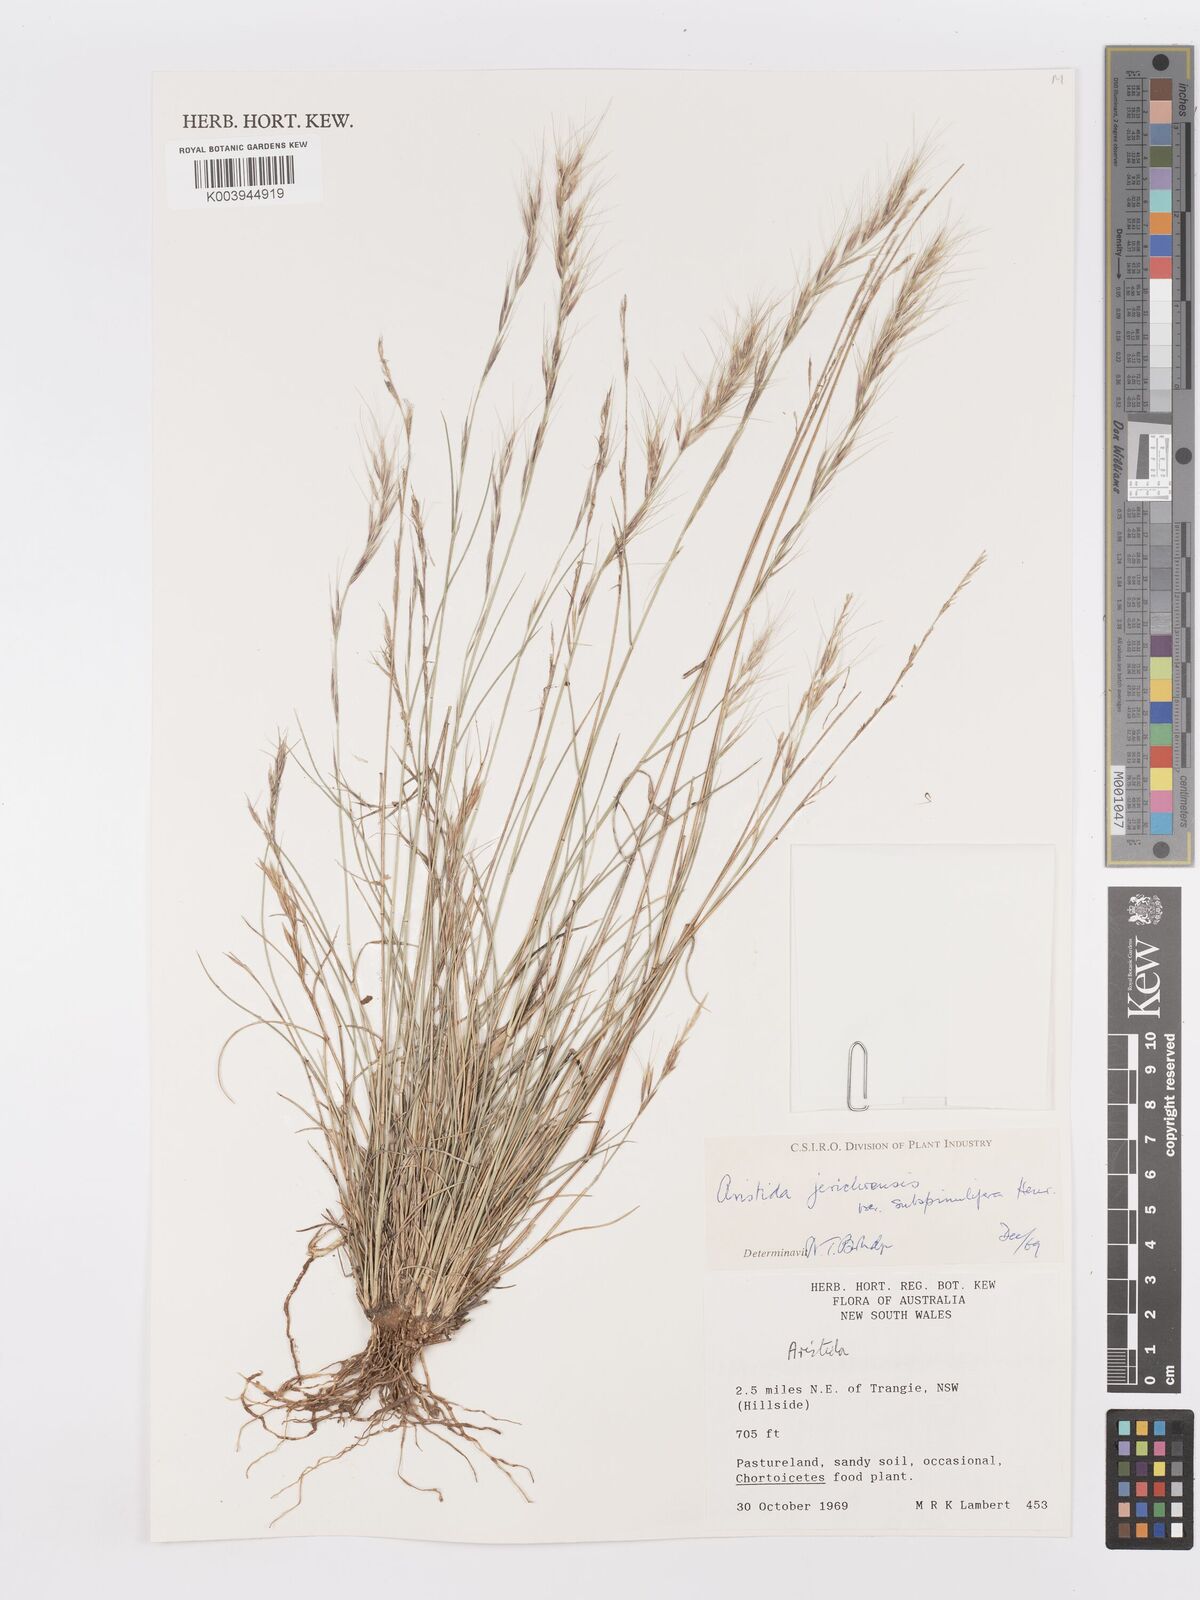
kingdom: Plantae
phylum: Tracheophyta
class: Liliopsida
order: Poales
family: Poaceae
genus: Aristida
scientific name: Aristida jerichoensis
